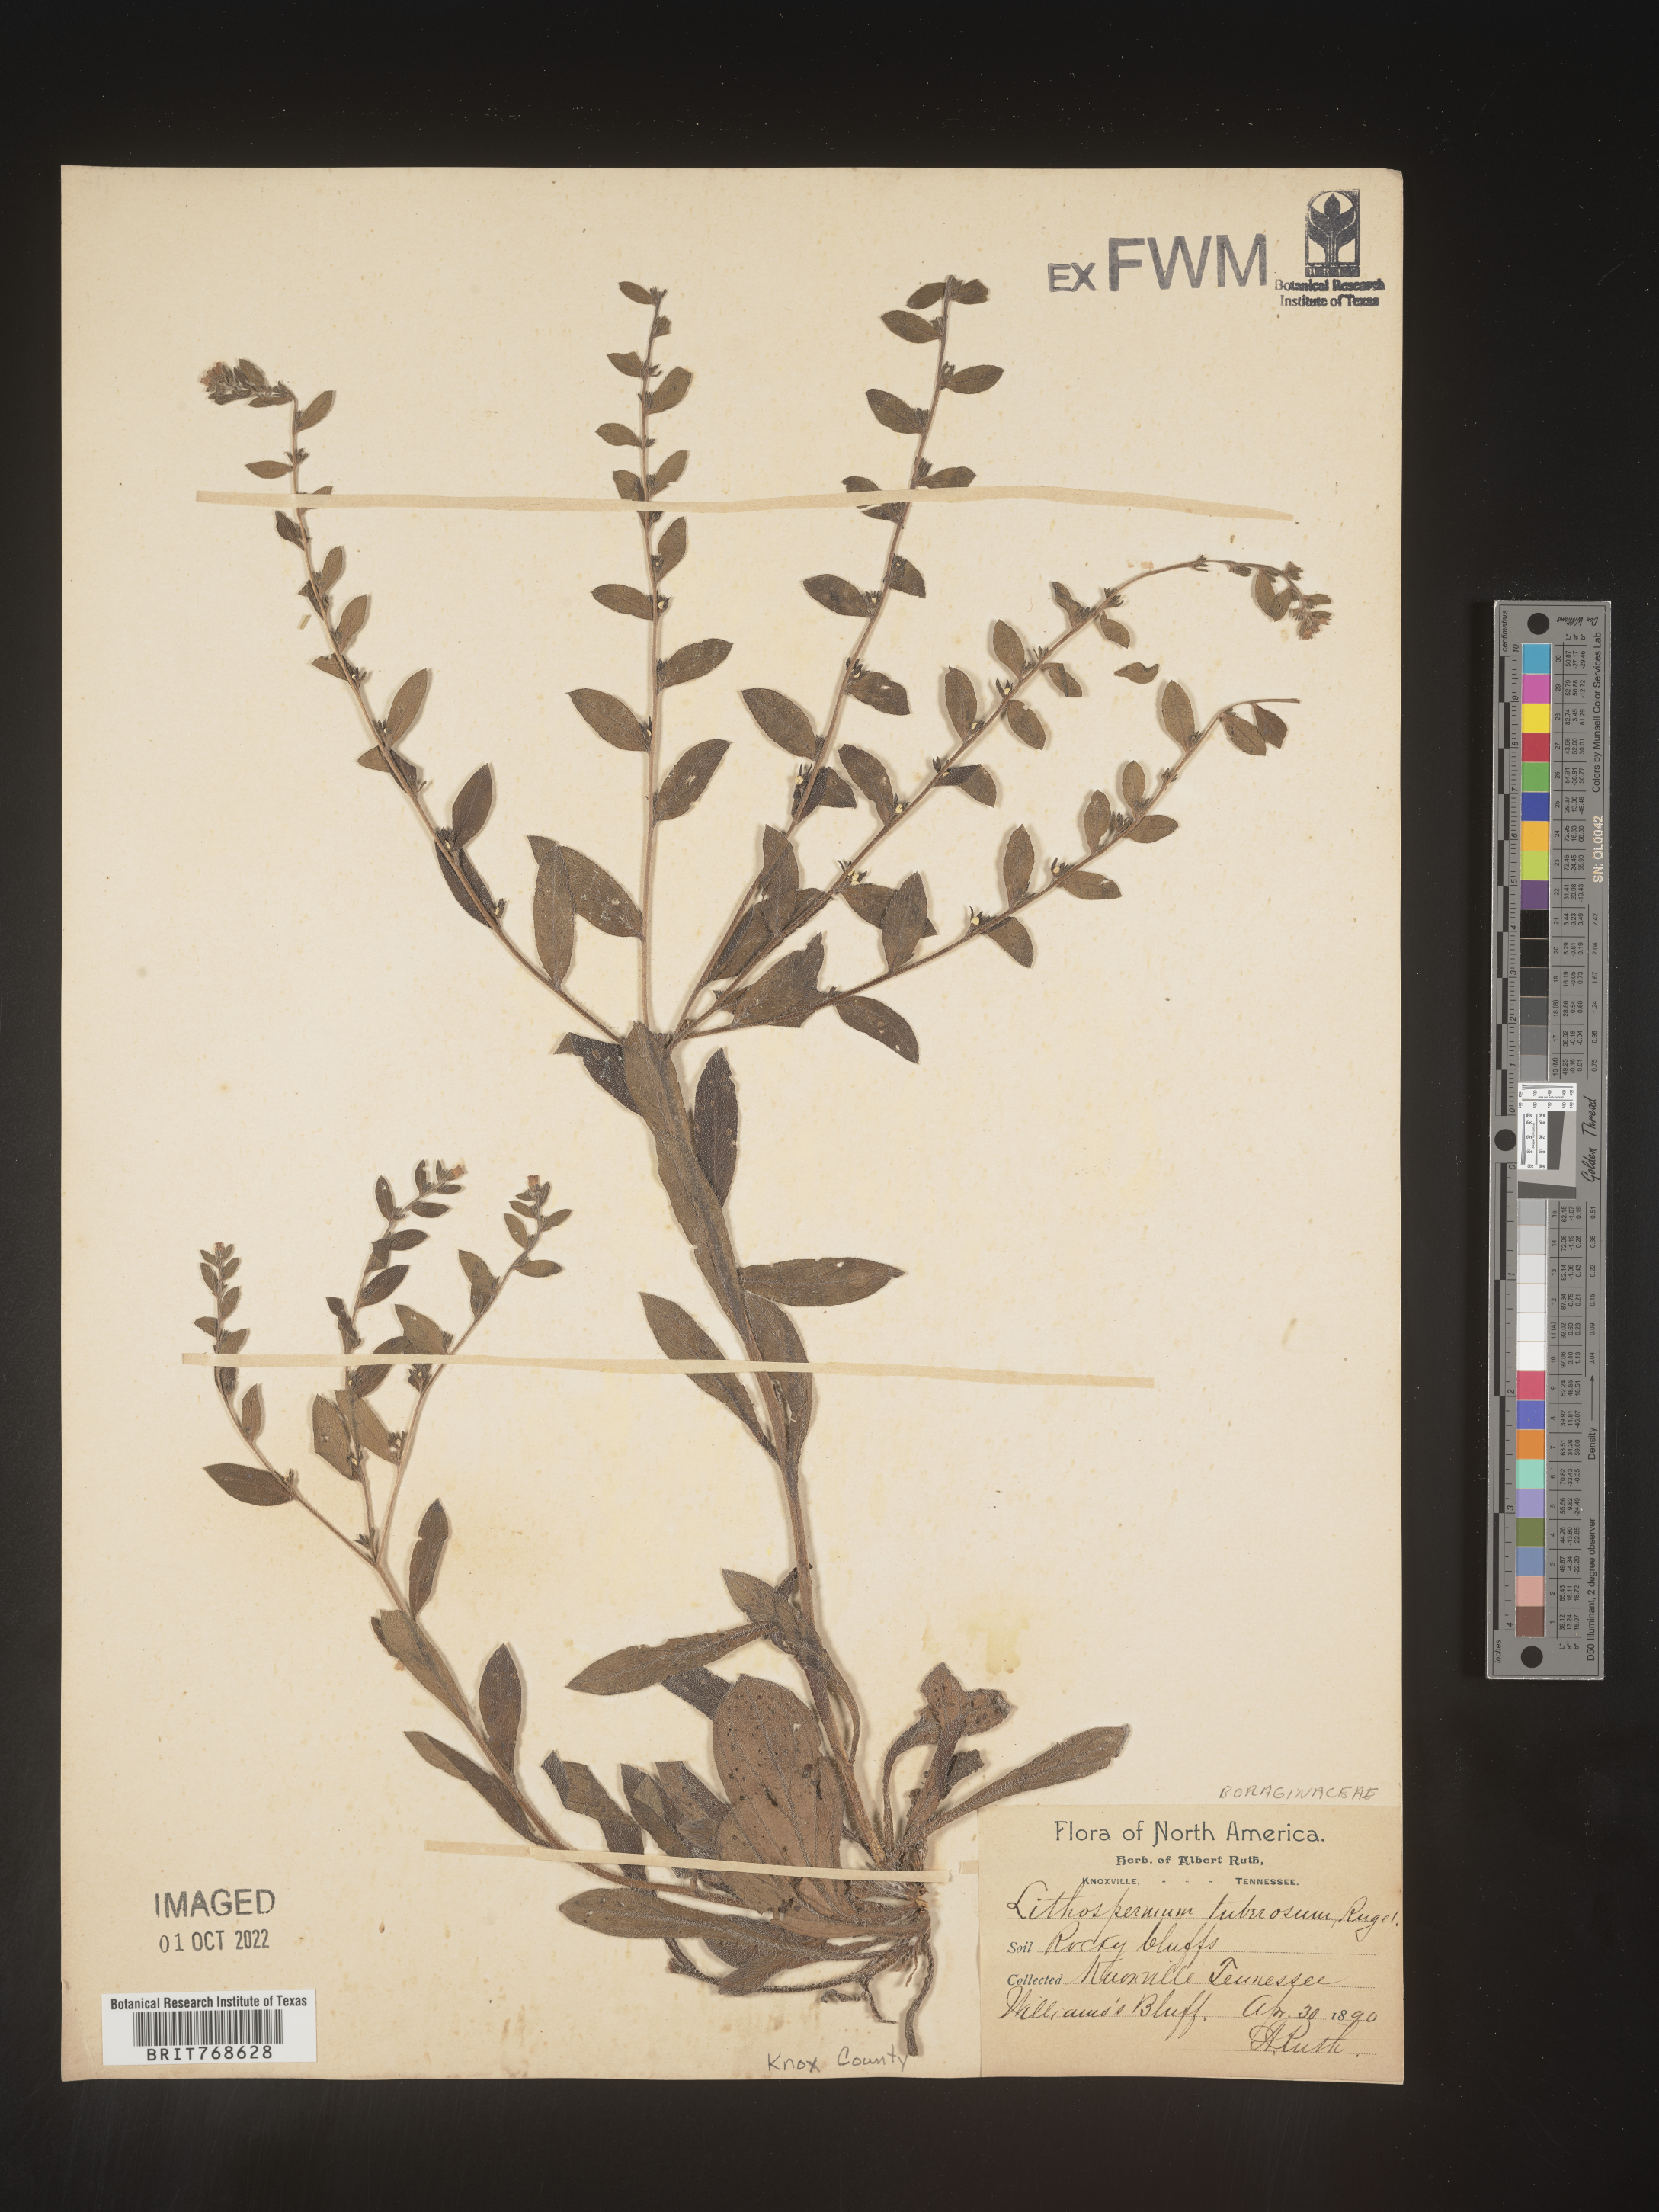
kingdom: Plantae
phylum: Tracheophyta
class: Magnoliopsida
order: Boraginales
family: Boraginaceae
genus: Lithospermum
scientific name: Lithospermum
